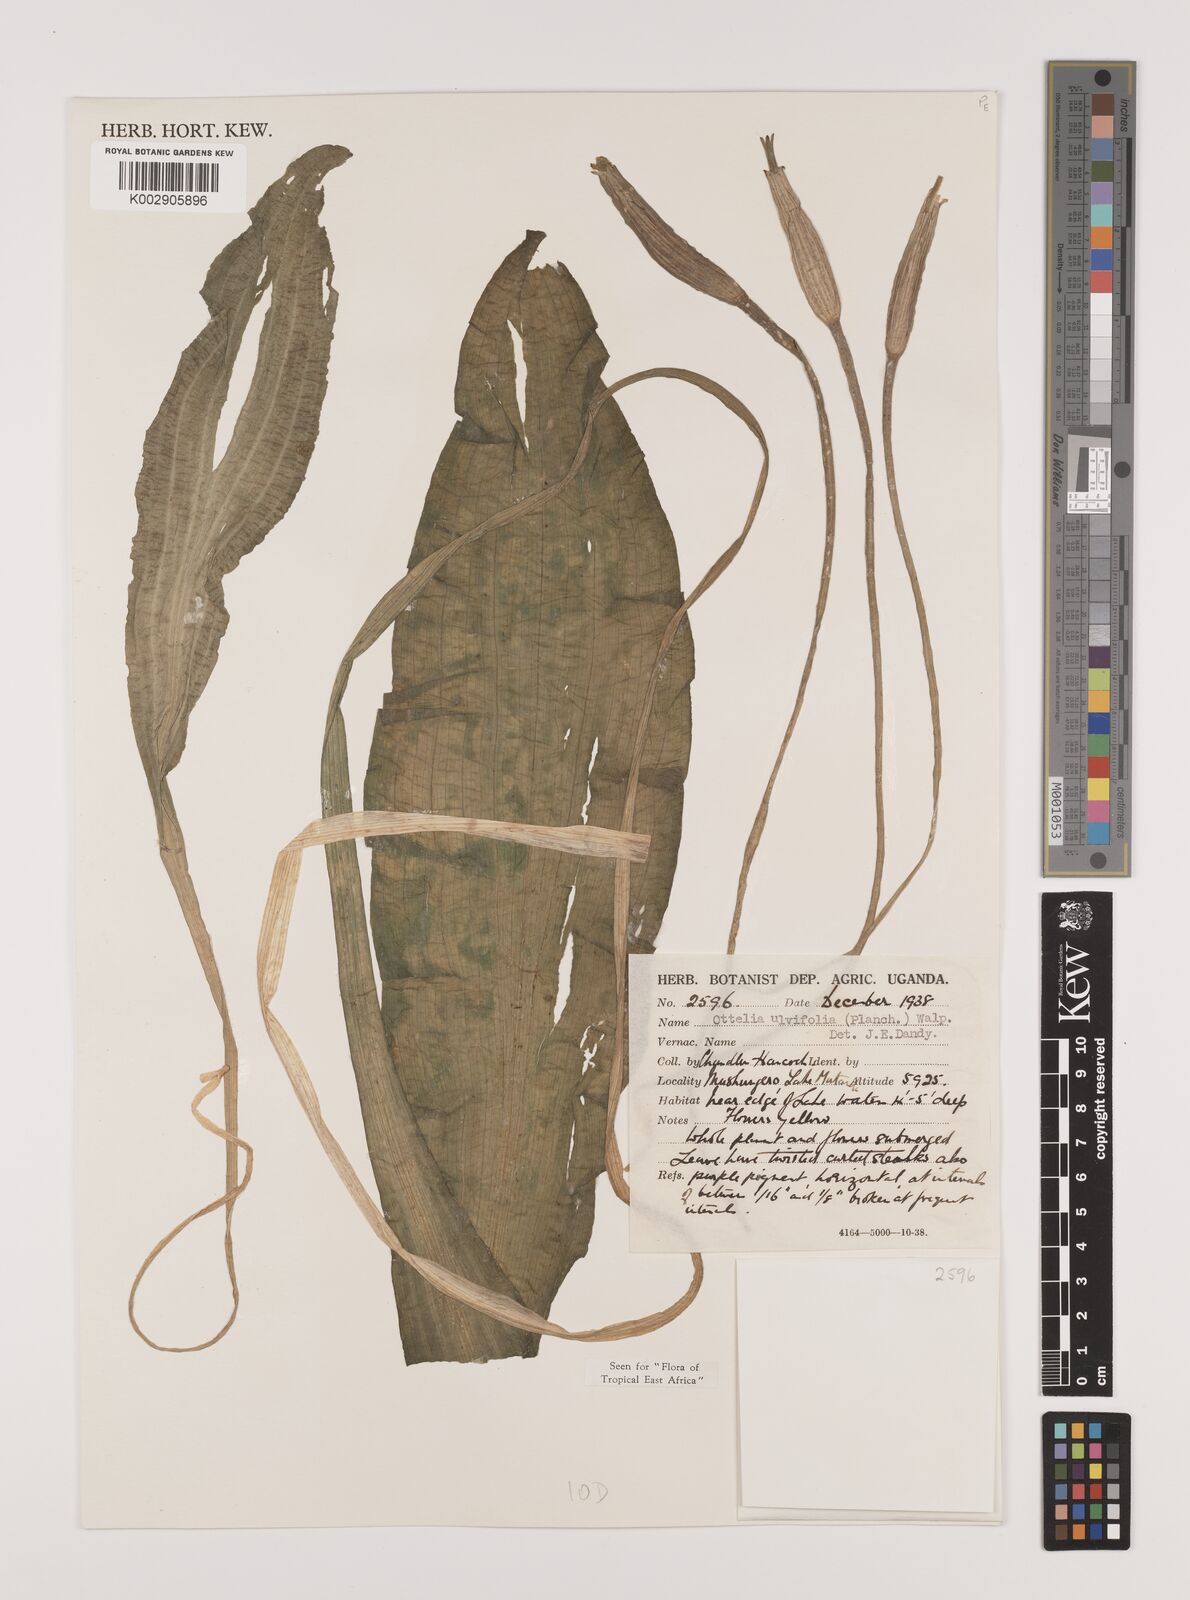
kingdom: Plantae
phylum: Tracheophyta
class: Liliopsida
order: Alismatales
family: Hydrocharitaceae
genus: Ottelia
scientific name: Ottelia ulvifolia
